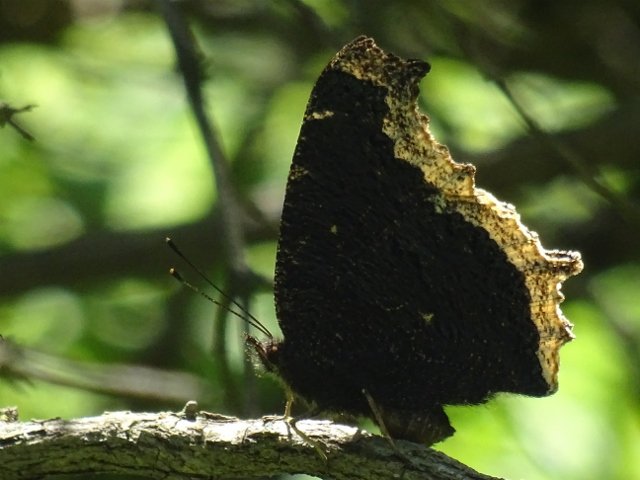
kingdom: Animalia
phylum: Arthropoda
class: Insecta
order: Lepidoptera
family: Nymphalidae
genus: Nymphalis
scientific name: Nymphalis antiopa
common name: Mourning Cloak
